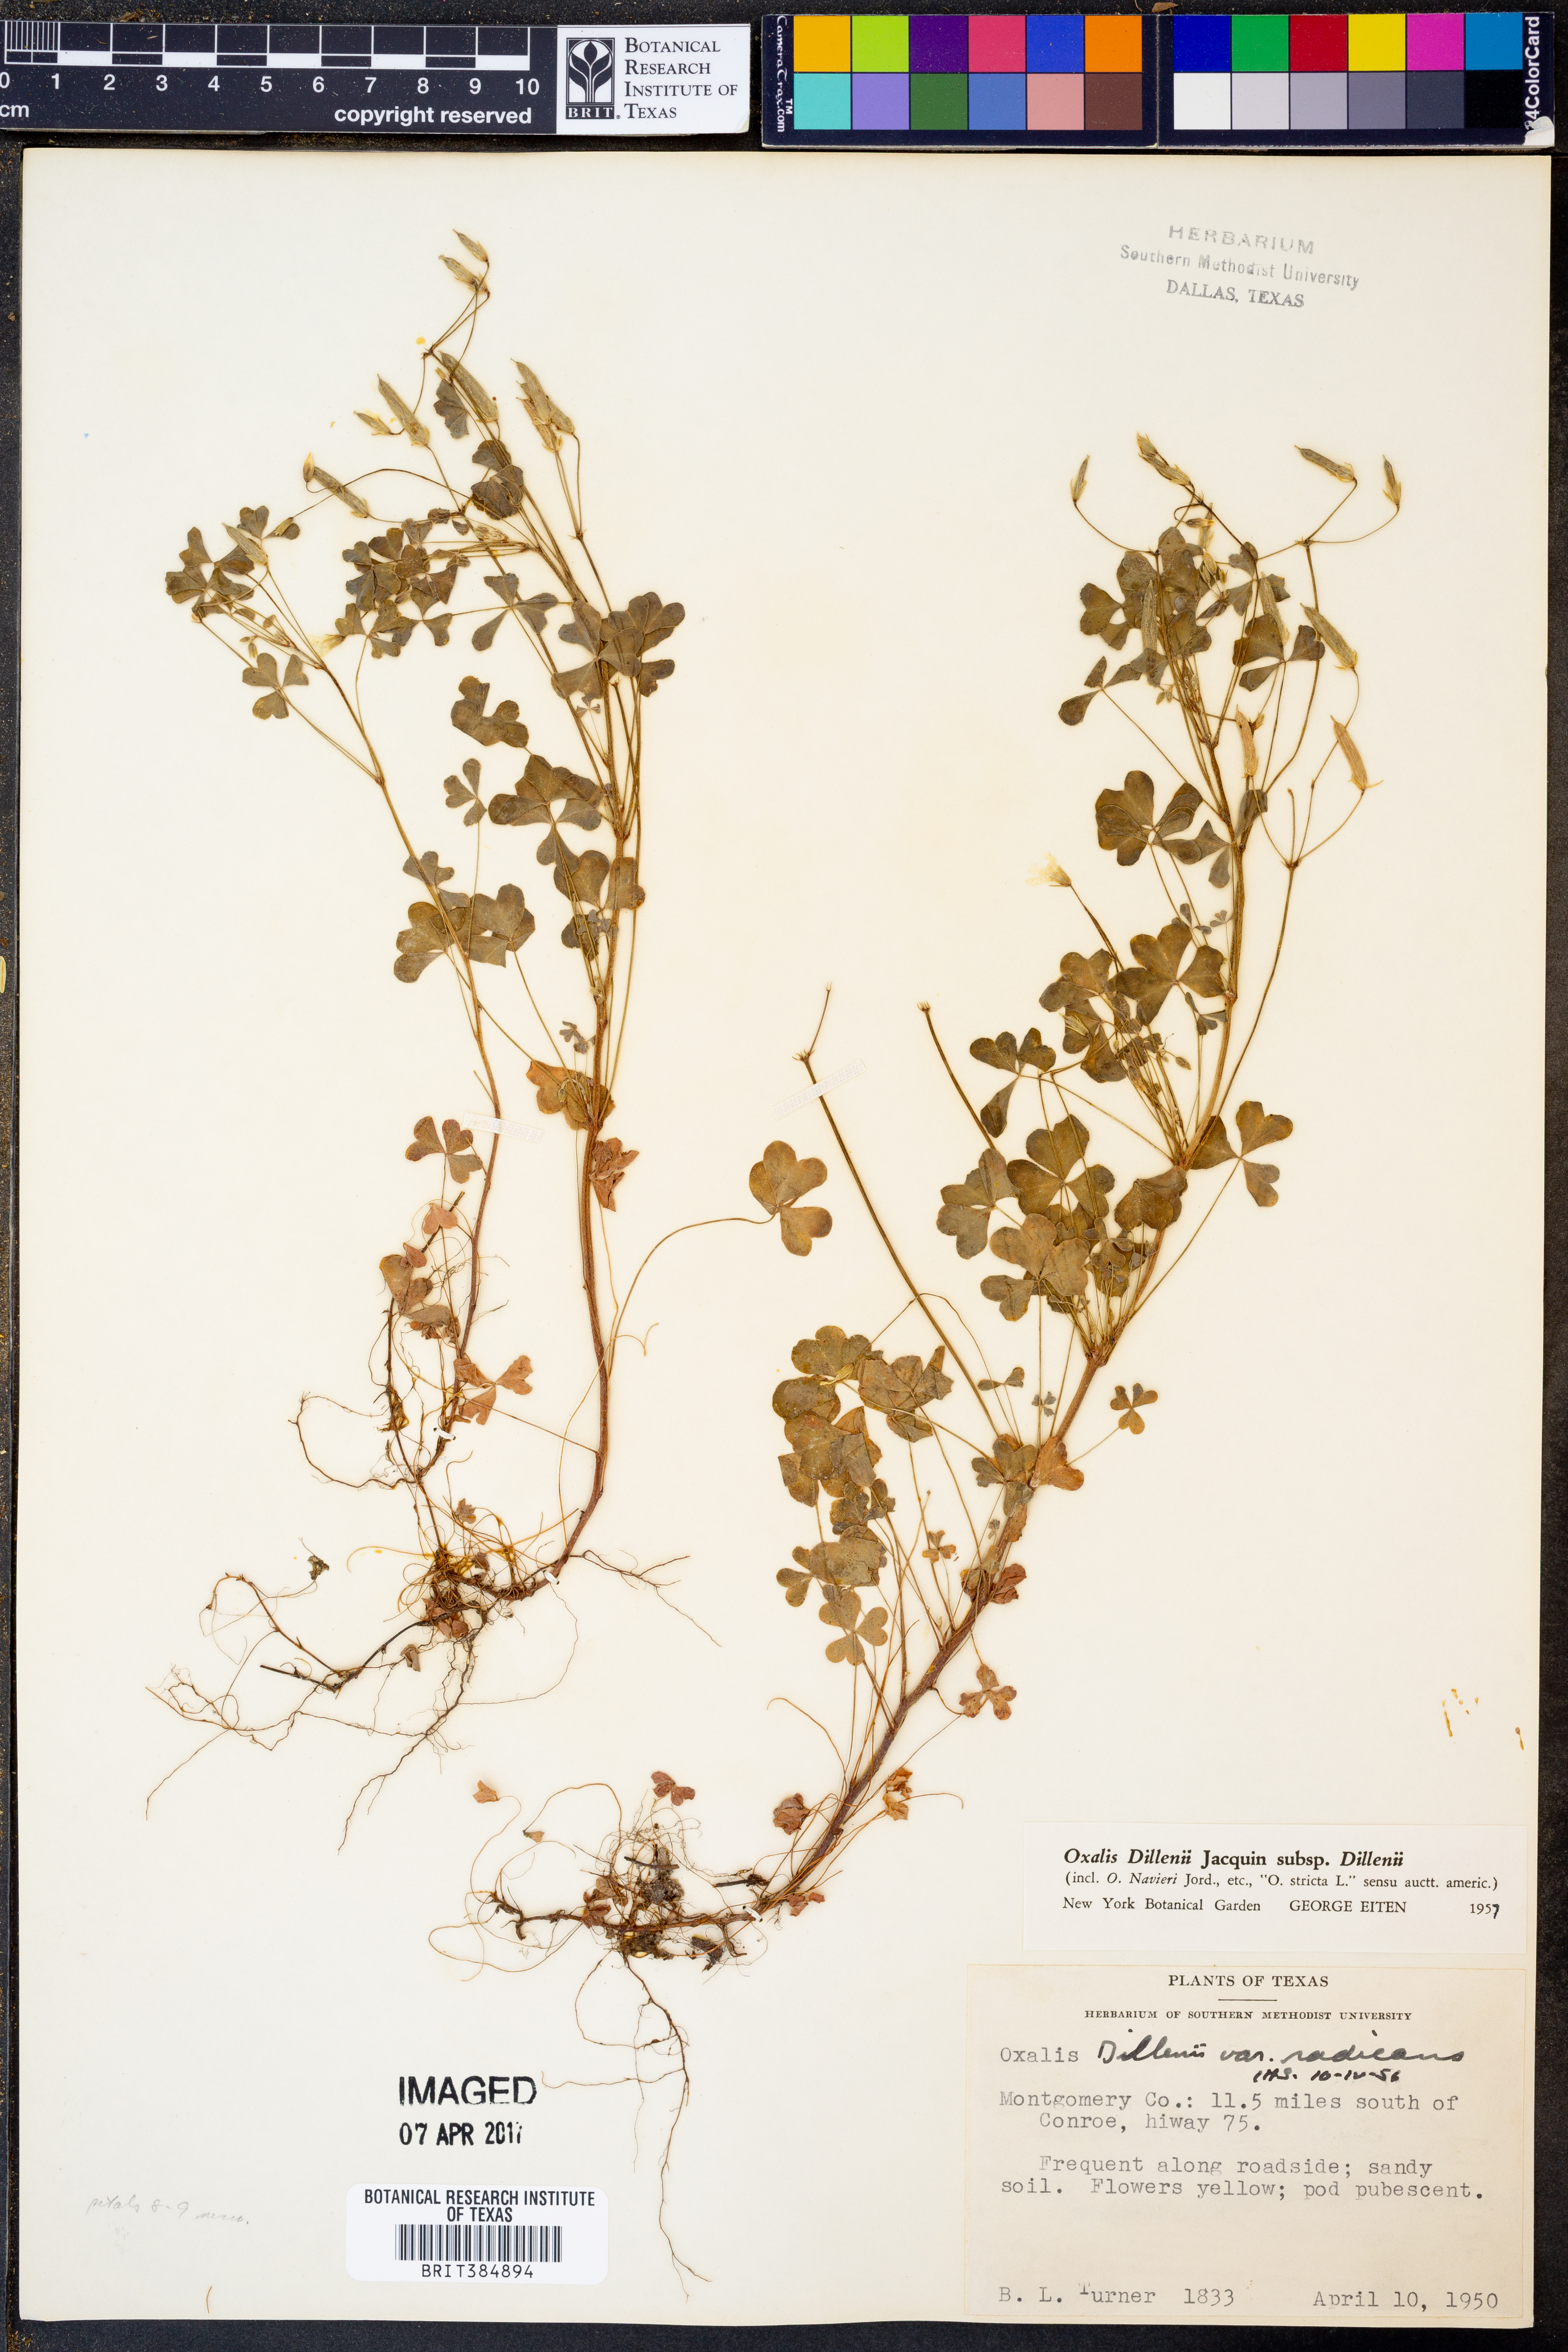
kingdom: Plantae
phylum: Tracheophyta
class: Magnoliopsida
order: Oxalidales
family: Oxalidaceae
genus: Oxalis
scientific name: Oxalis dillenii
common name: Sussex yellow-sorrel
